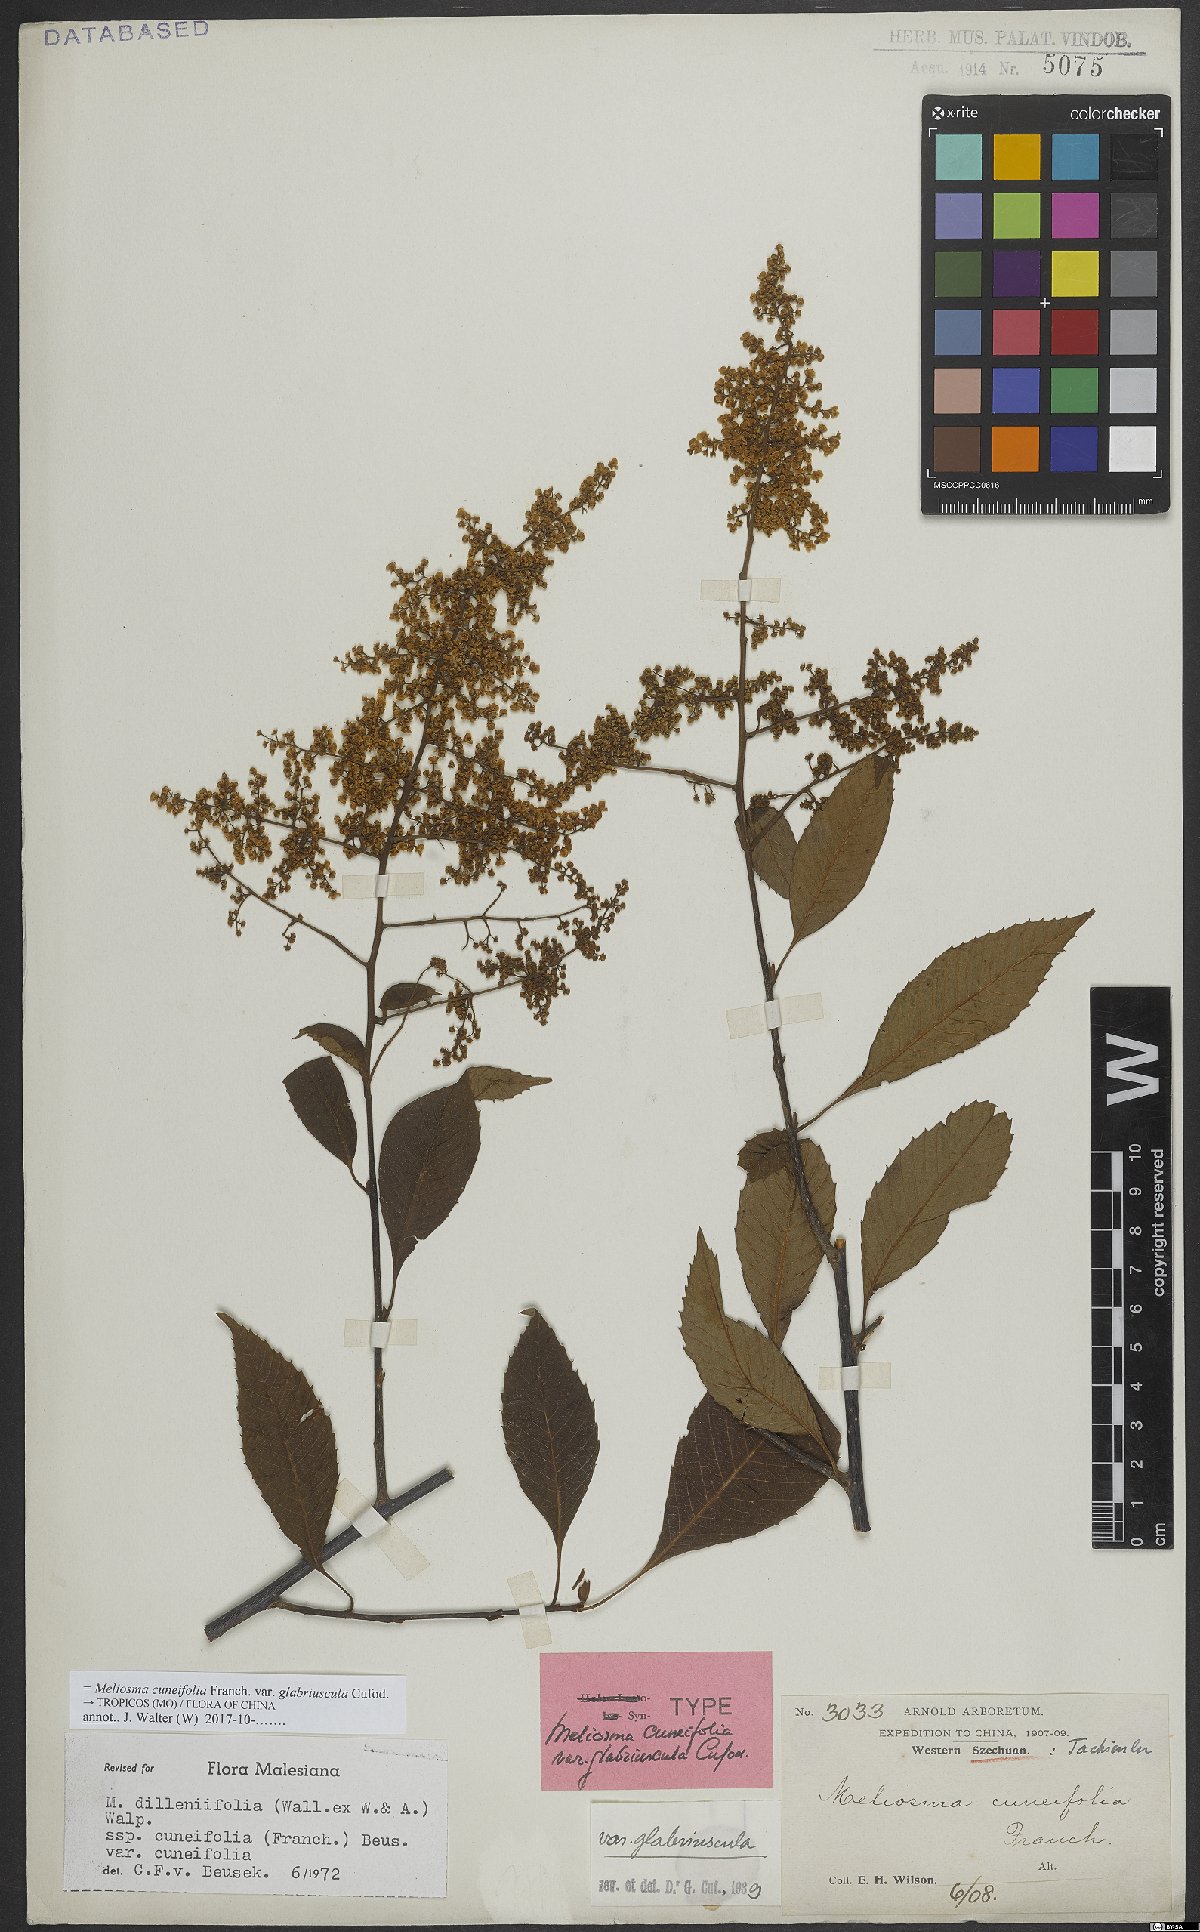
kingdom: Plantae
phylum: Tracheophyta
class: Magnoliopsida
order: Proteales
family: Sabiaceae
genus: Meliosma
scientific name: Meliosma cuneifolia
